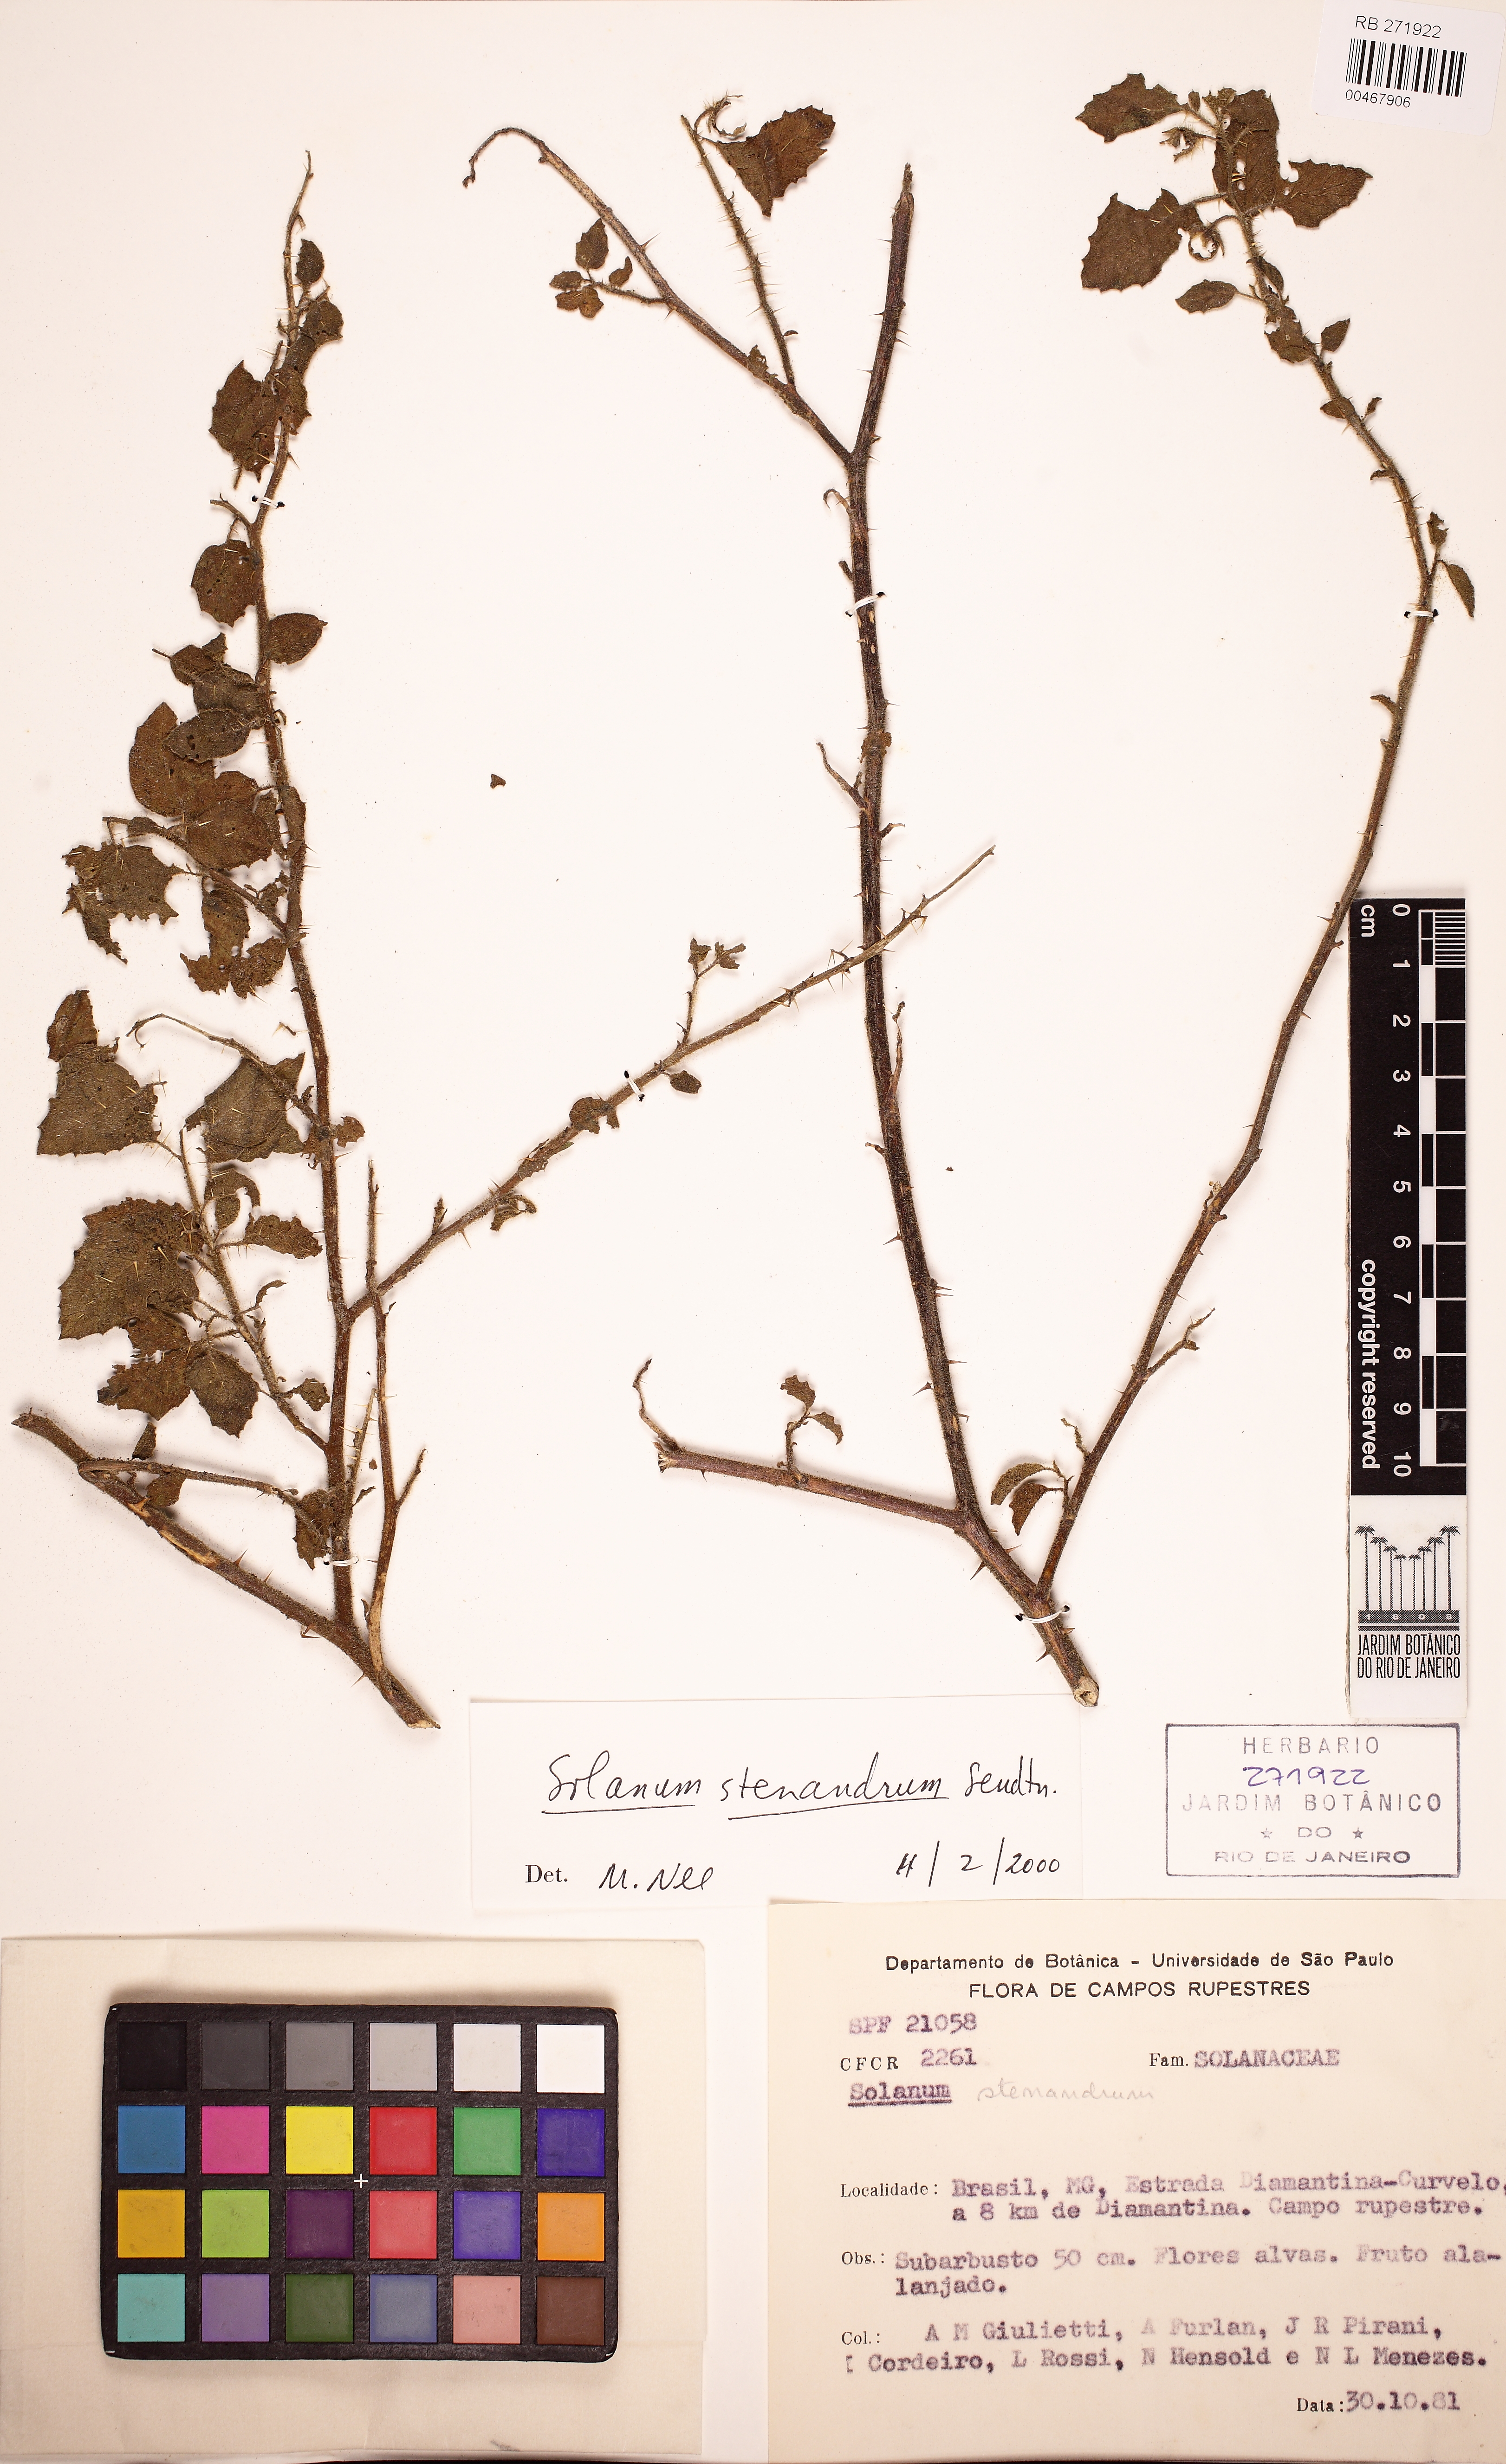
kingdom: Plantae
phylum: Tracheophyta
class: Magnoliopsida
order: Solanales
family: Solanaceae
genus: Solanum
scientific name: Solanum stenandrum
